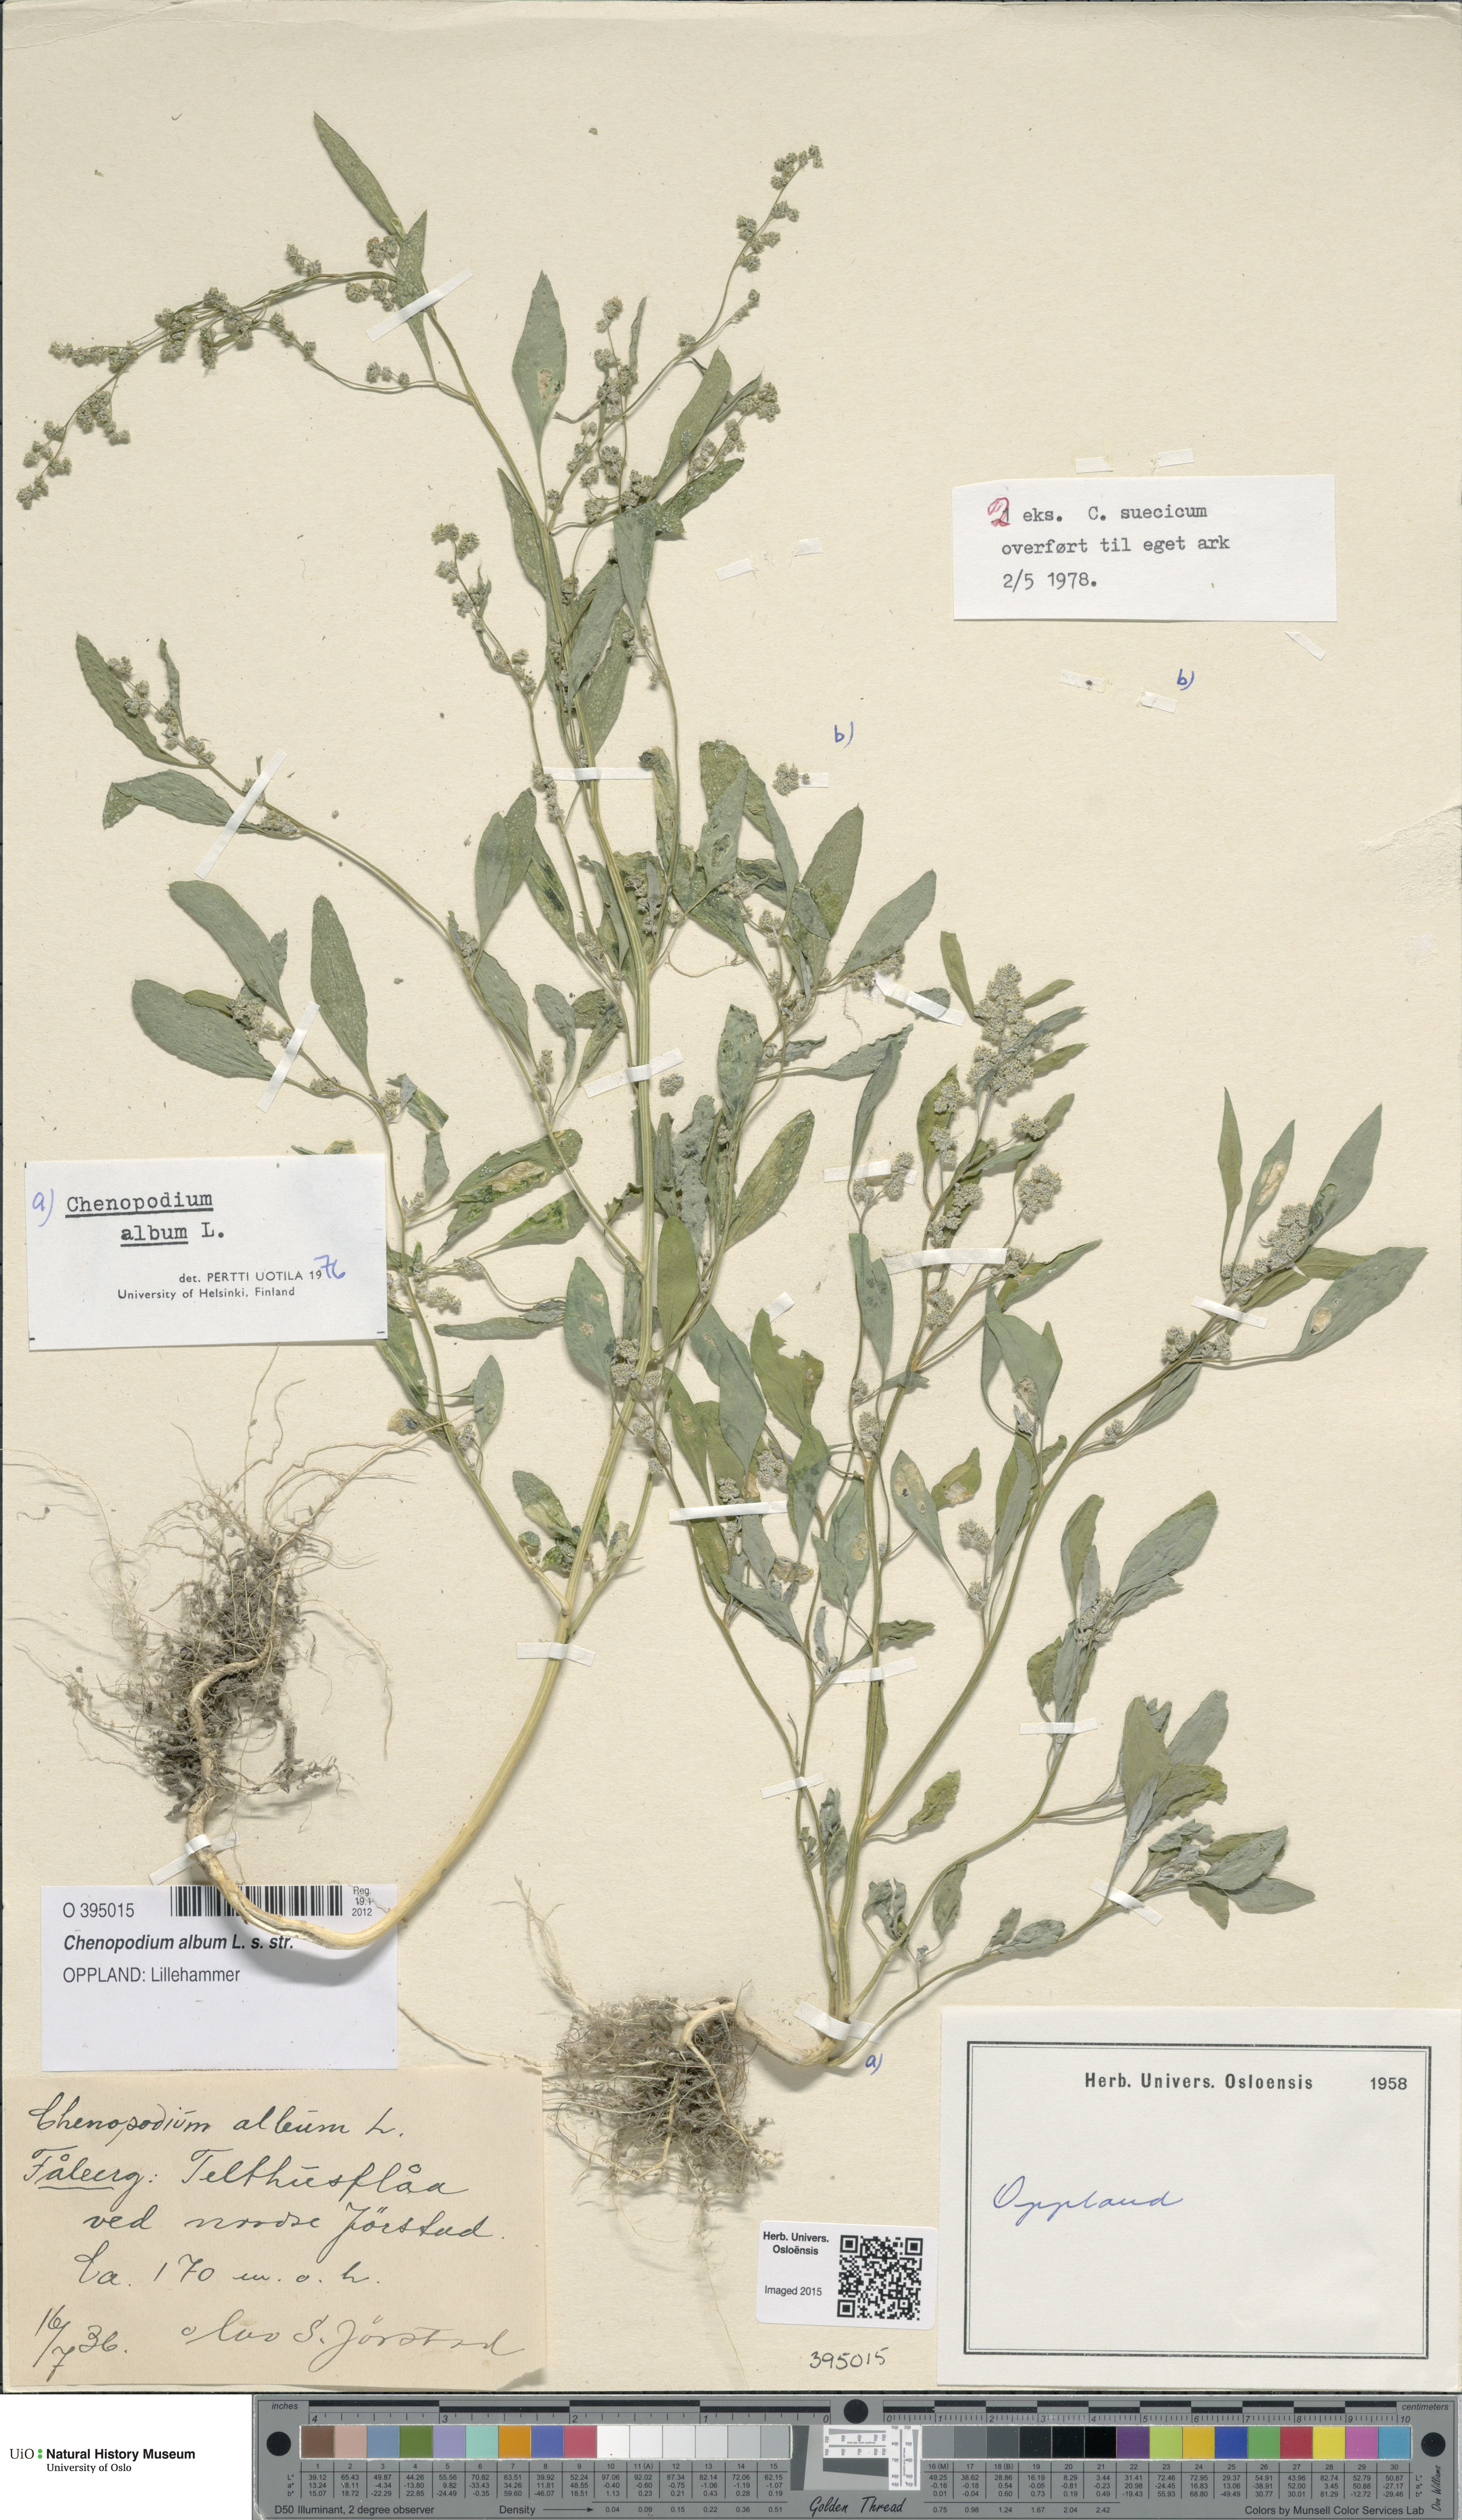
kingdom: Plantae
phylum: Tracheophyta
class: Magnoliopsida
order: Caryophyllales
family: Amaranthaceae
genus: Chenopodium
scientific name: Chenopodium album
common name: Fat-hen
